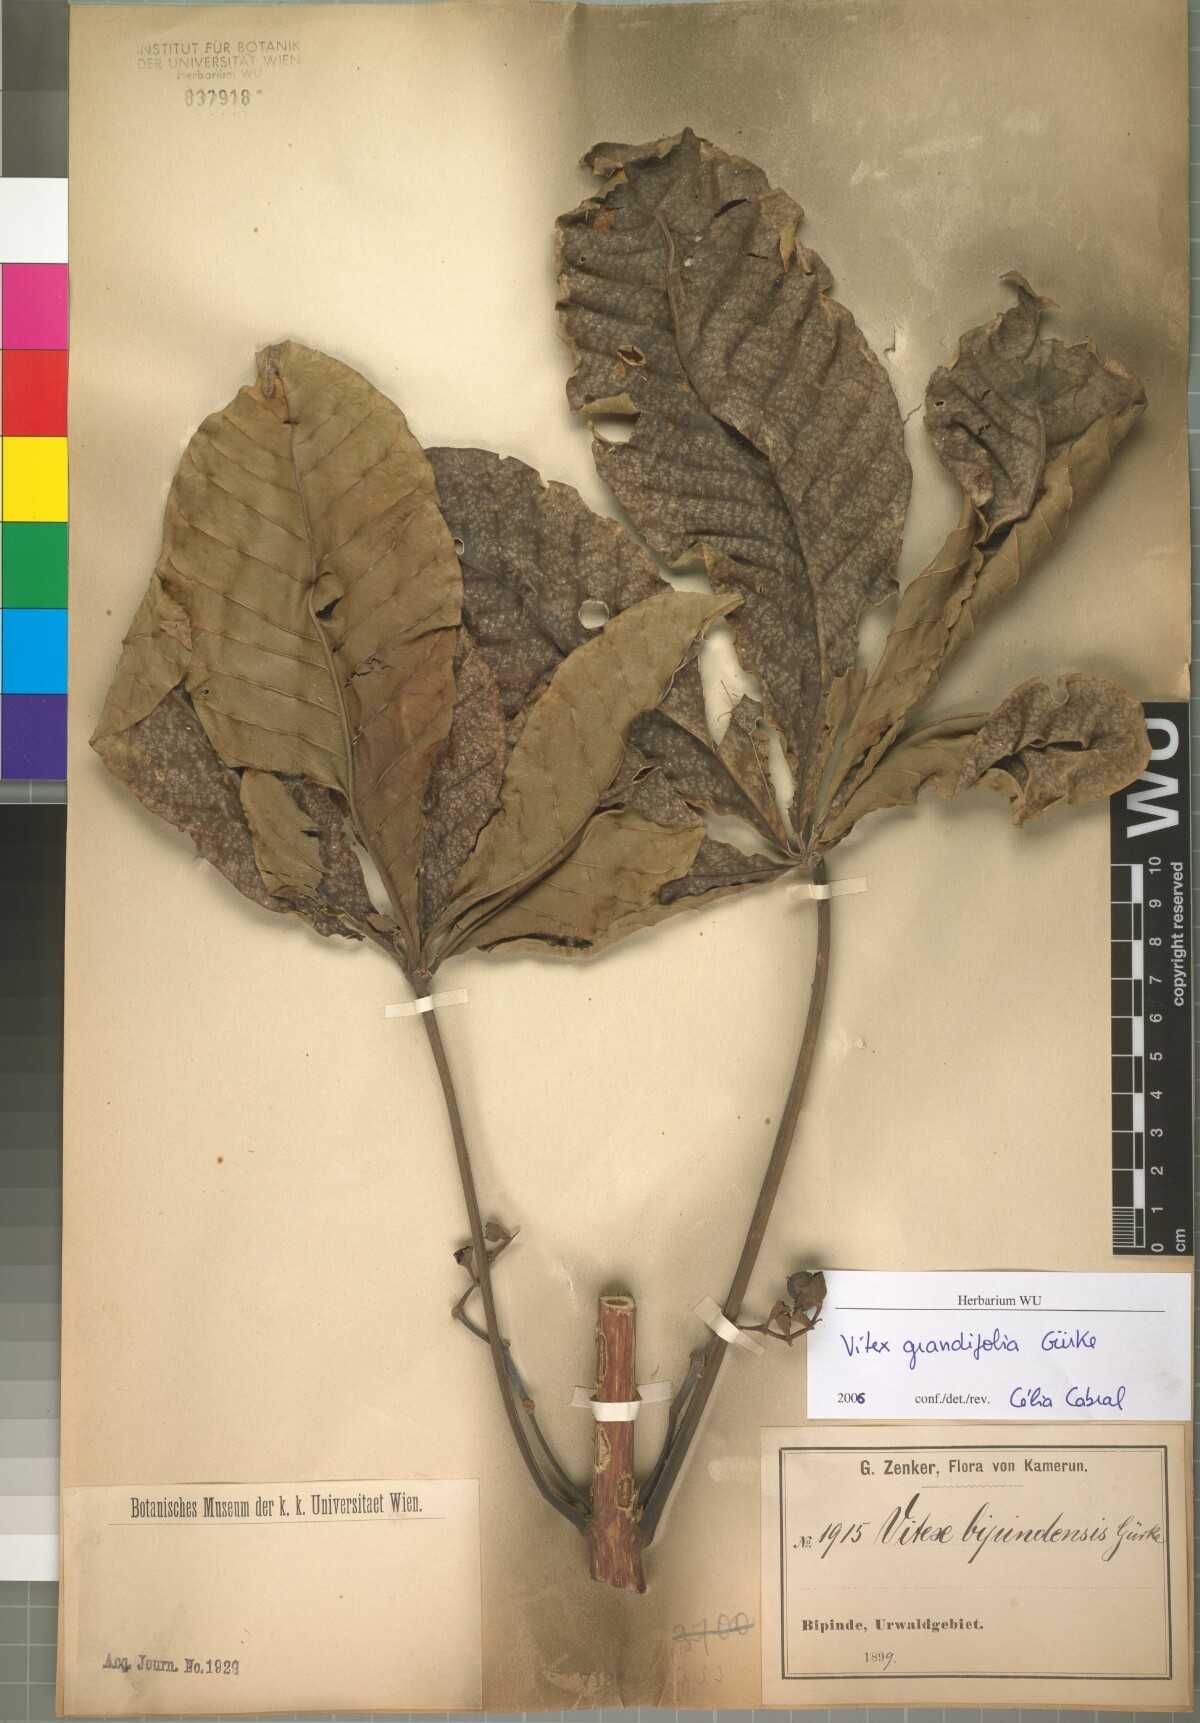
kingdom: Plantae
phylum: Tracheophyta
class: Magnoliopsida
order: Lamiales
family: Lamiaceae
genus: Vitex
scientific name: Vitex grandifolia
